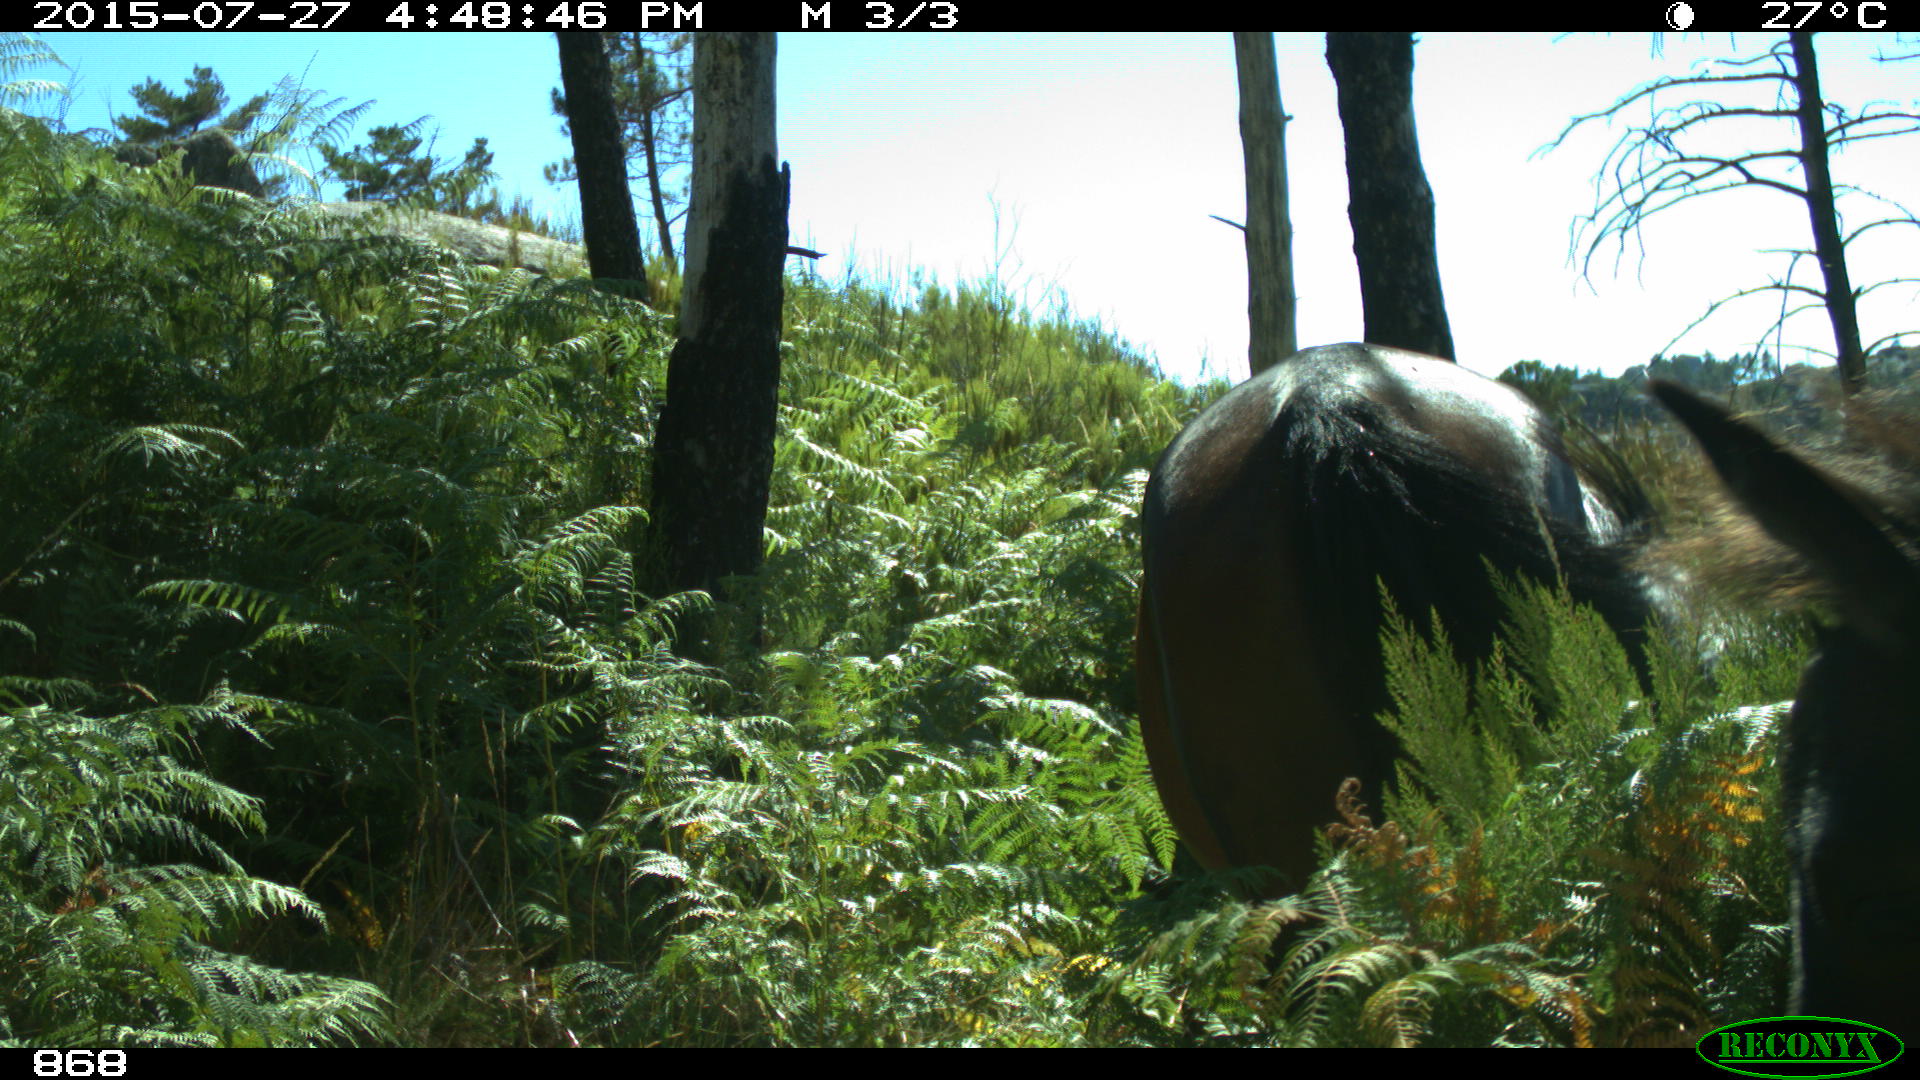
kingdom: Animalia
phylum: Chordata
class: Mammalia
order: Perissodactyla
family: Equidae
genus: Equus
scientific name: Equus caballus
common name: Horse
